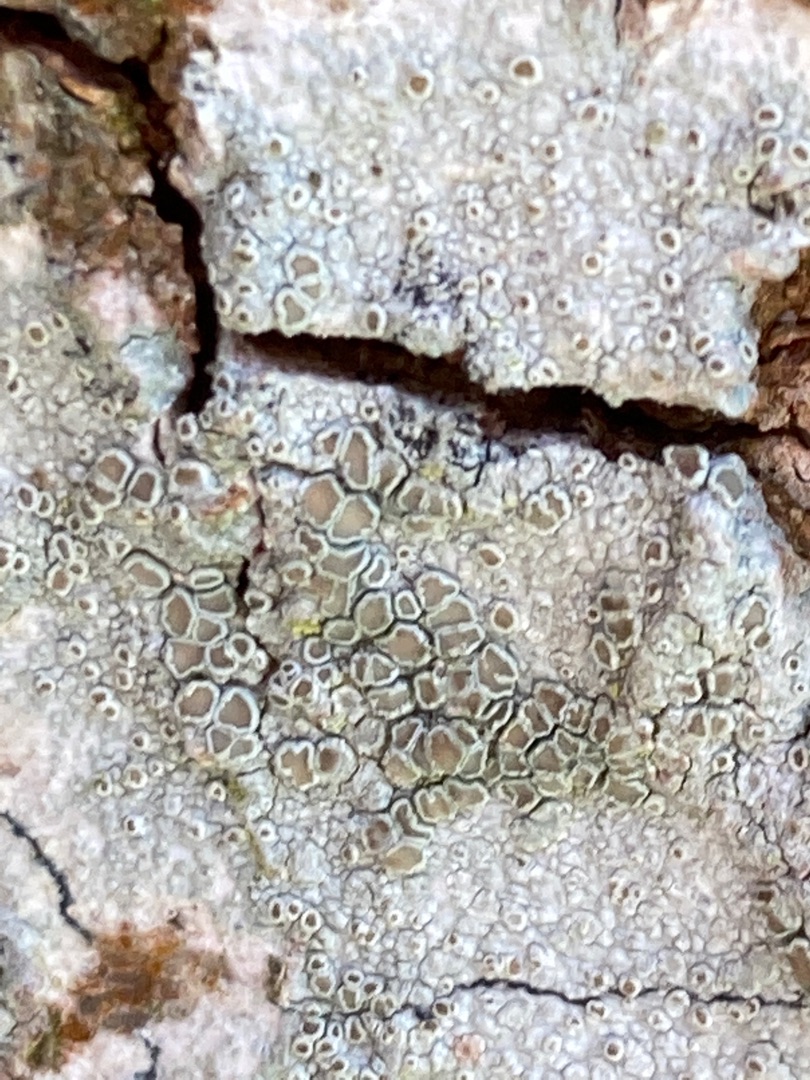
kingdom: Fungi
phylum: Ascomycota
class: Lecanoromycetes
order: Lecanorales
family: Lecanoraceae
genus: Lecanora
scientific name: Lecanora chlarotera
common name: Brun kantskivelav
